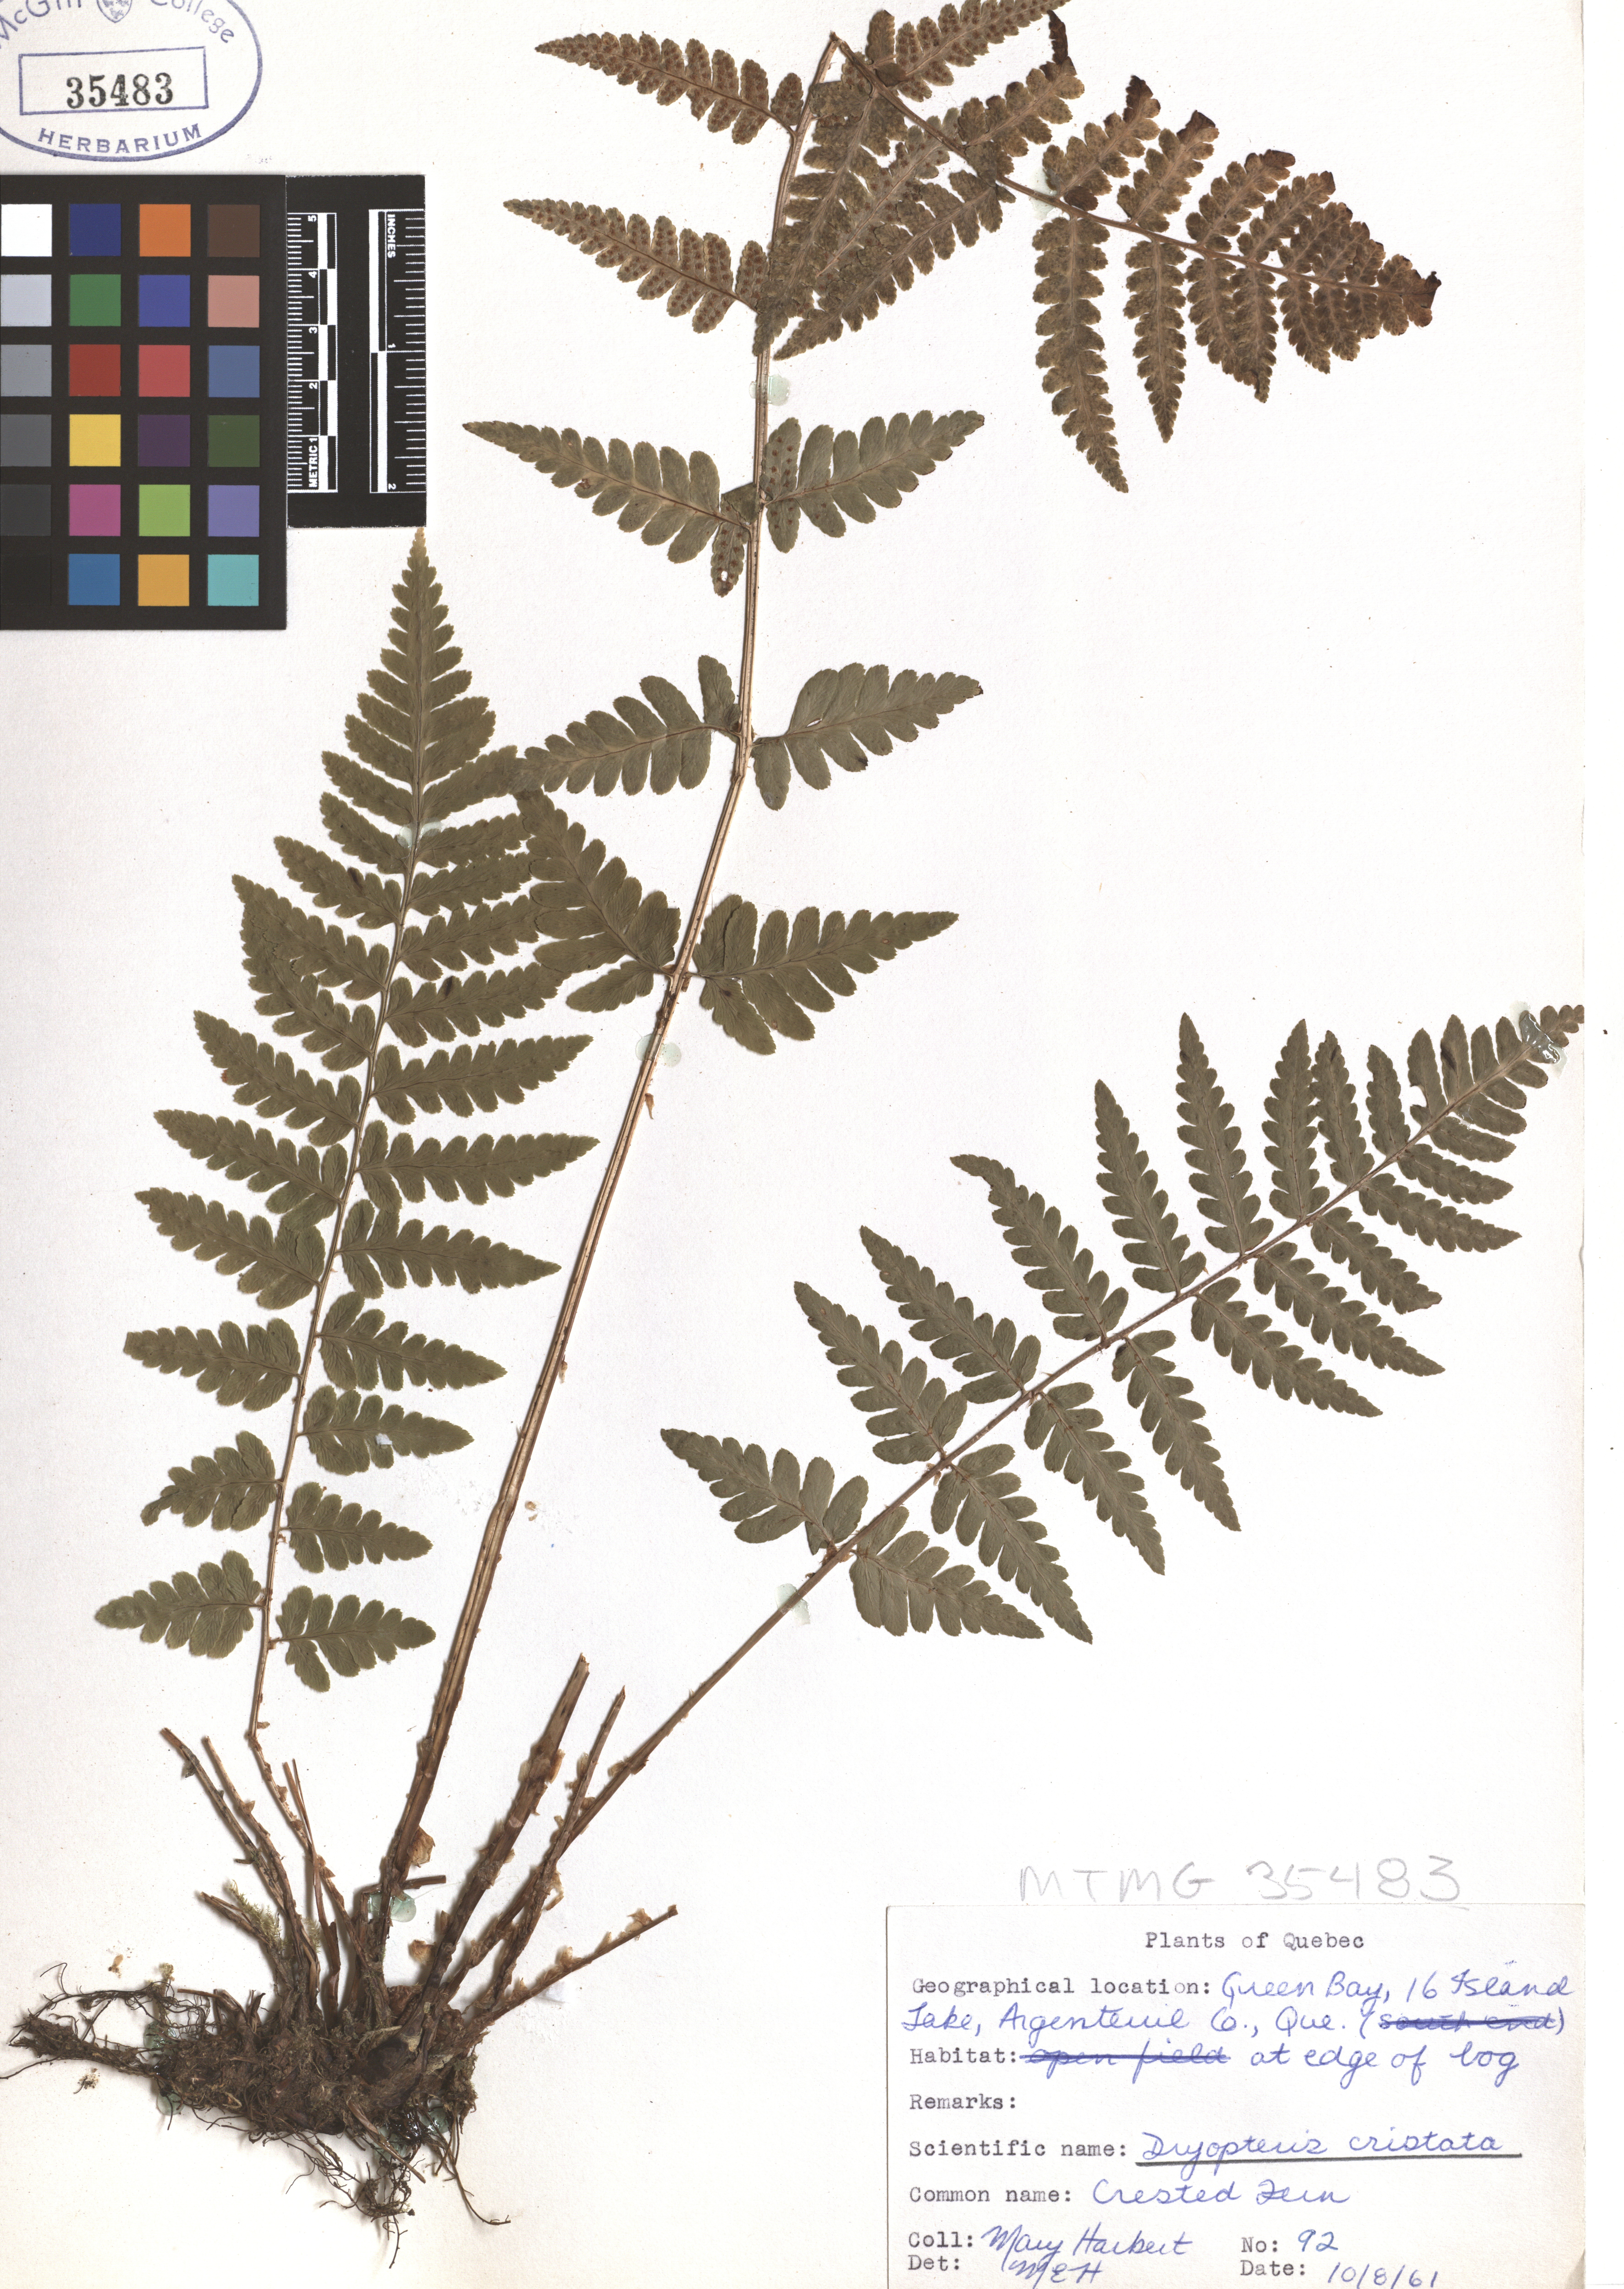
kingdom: Plantae
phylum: Tracheophyta
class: Polypodiopsida
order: Polypodiales
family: Dryopteridaceae
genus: Dryopteris
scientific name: Dryopteris cristata
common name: Crested wood fern
